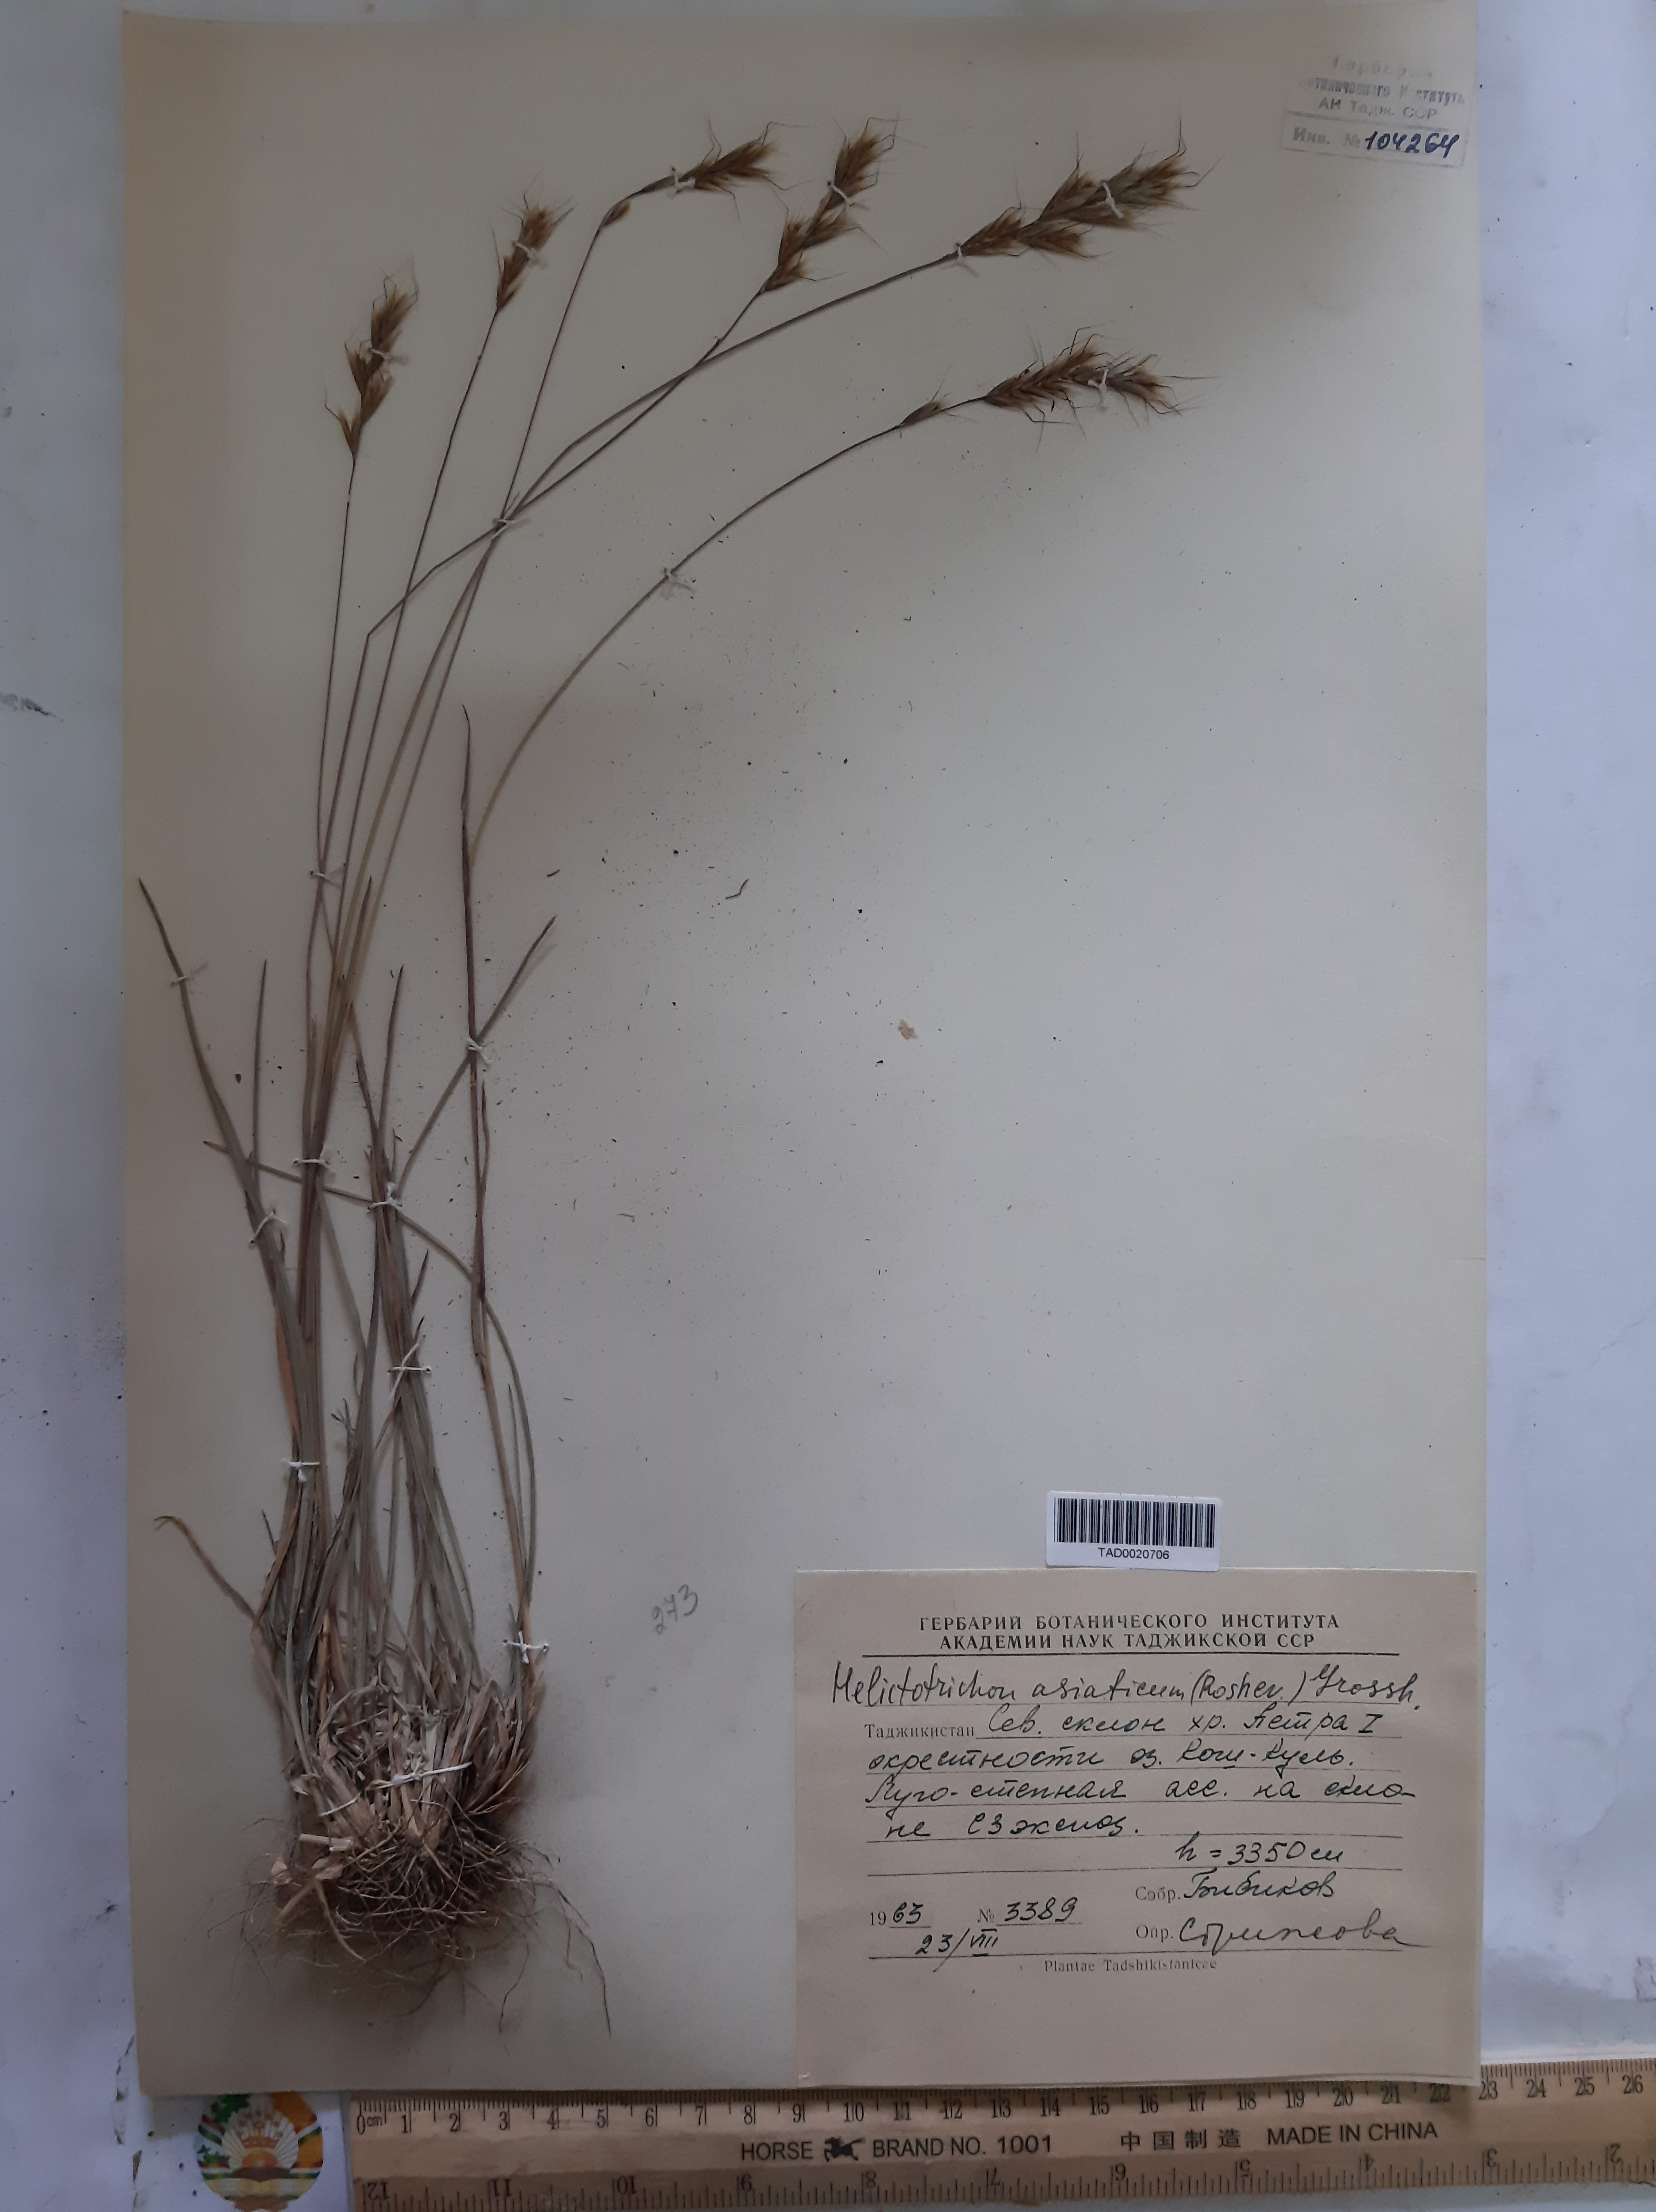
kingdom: Plantae
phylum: Tracheophyta
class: Liliopsida
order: Poales
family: Poaceae
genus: Helictochloa
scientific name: Helictochloa hookeri
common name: Hooker's alpine oatgrass
